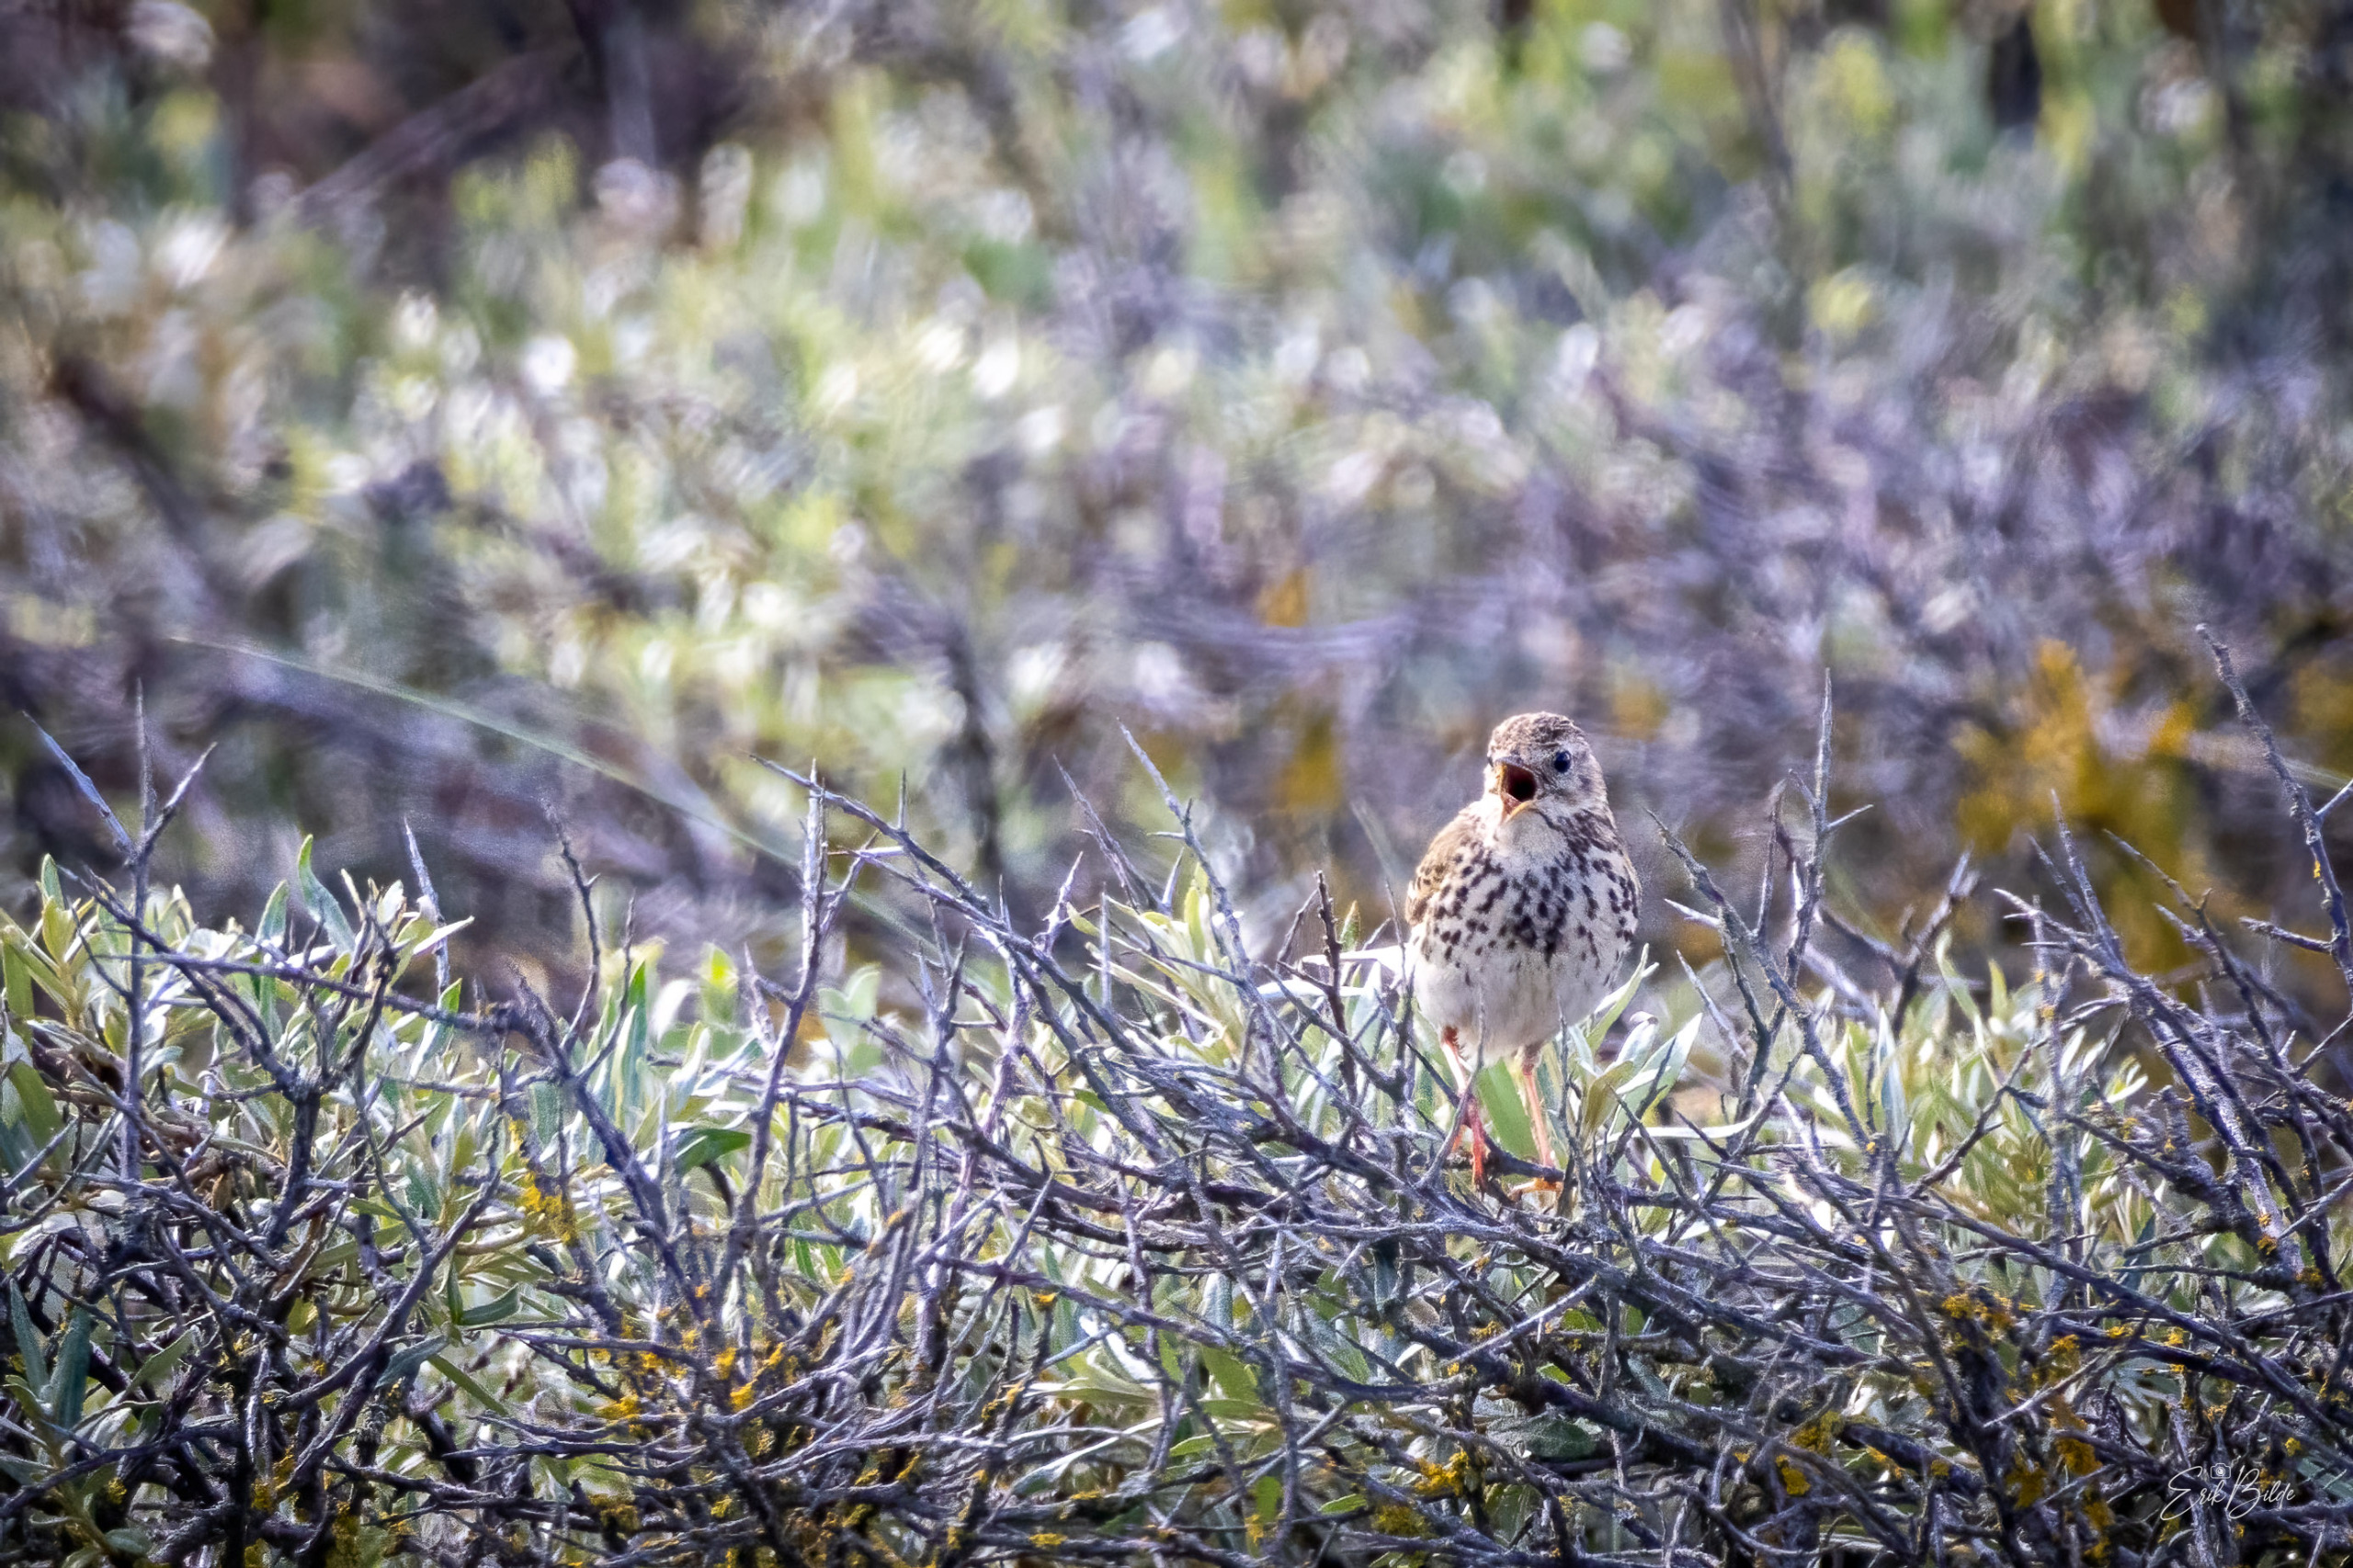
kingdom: Animalia
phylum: Chordata
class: Aves
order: Passeriformes
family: Motacillidae
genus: Anthus
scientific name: Anthus pratensis
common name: Engpiber
